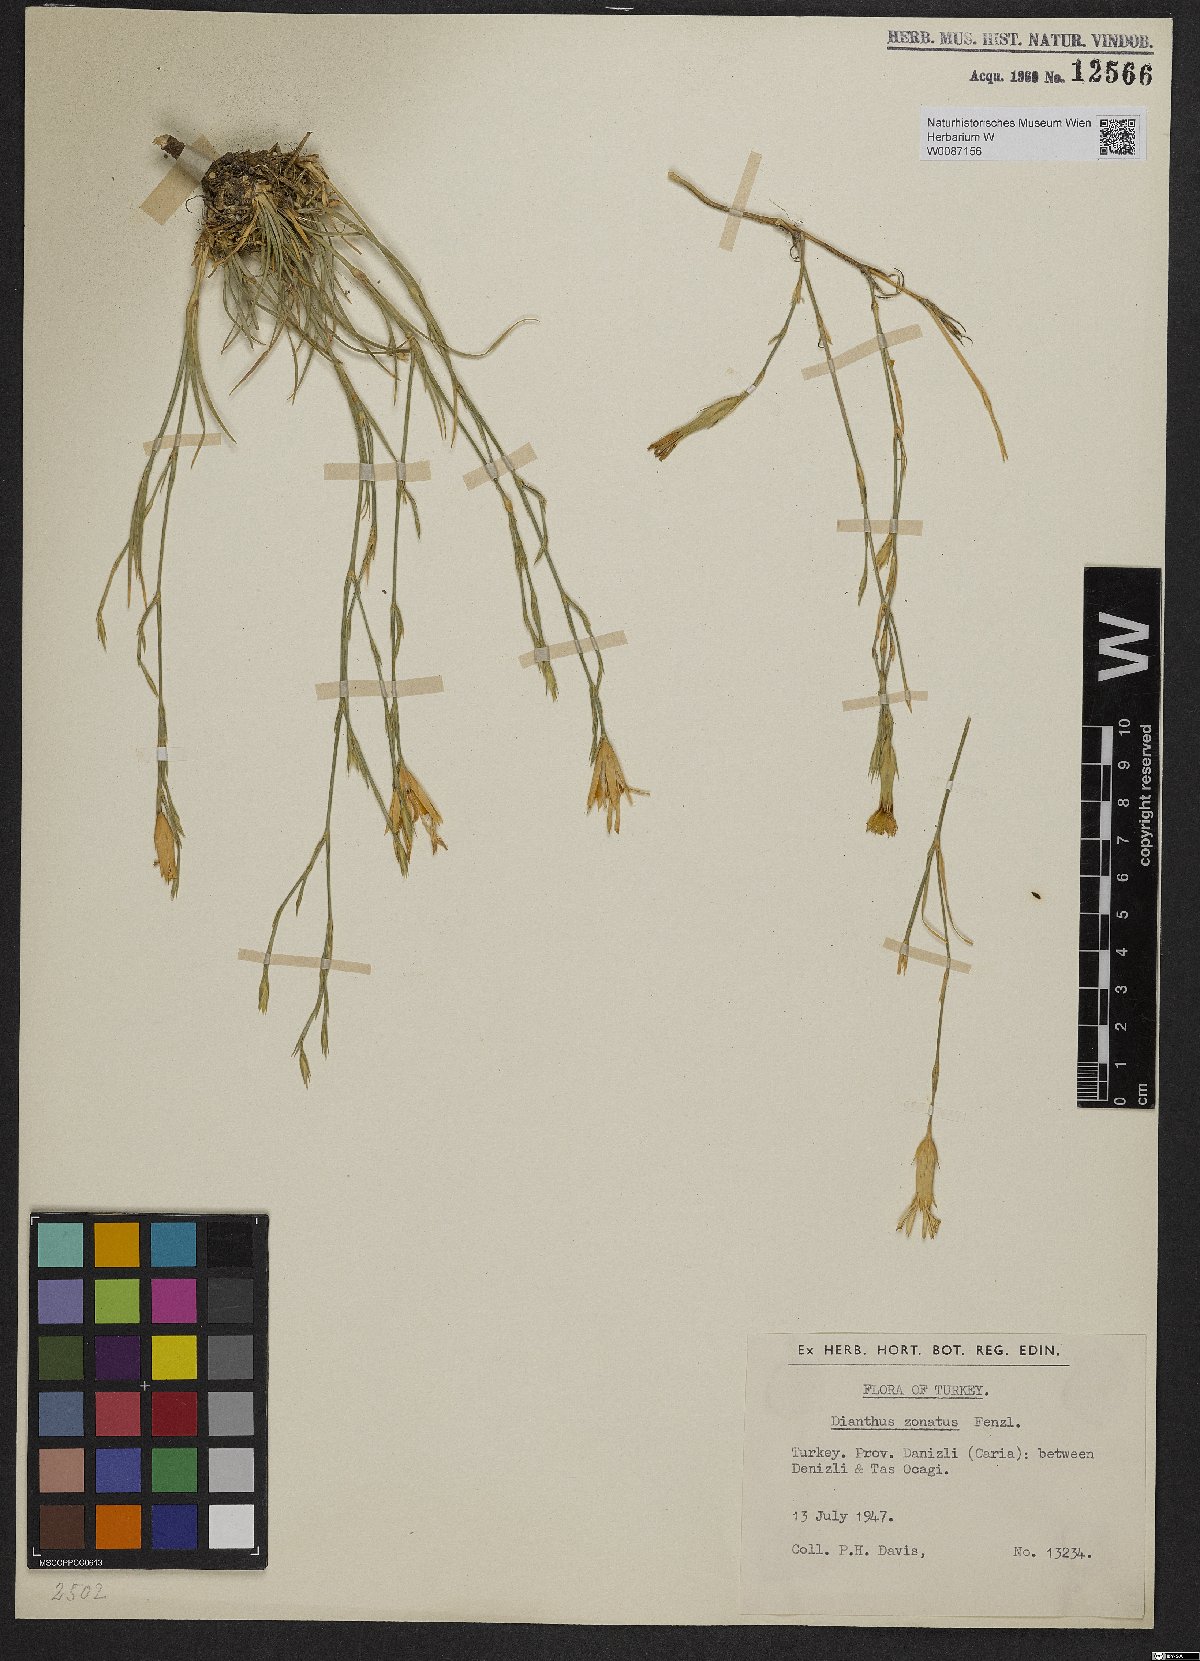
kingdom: Plantae
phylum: Tracheophyta
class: Magnoliopsida
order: Caryophyllales
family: Caryophyllaceae
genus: Dianthus
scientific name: Dianthus zonatus
